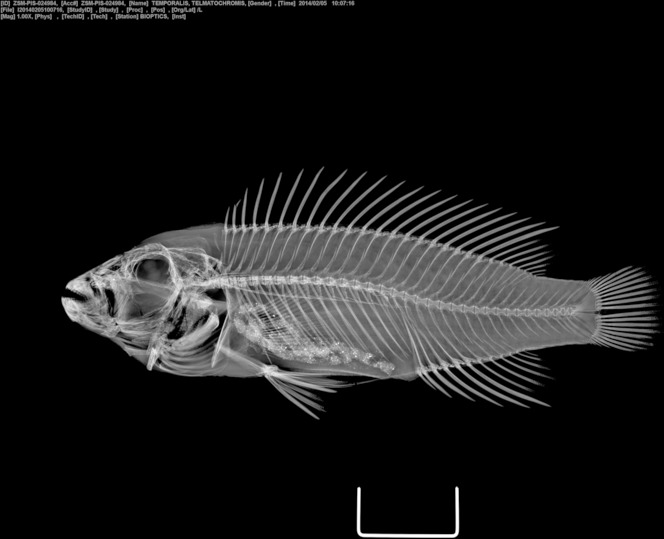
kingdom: Animalia
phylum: Chordata
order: Perciformes
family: Cichlidae
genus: Telmatochromis
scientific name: Telmatochromis temporalis
